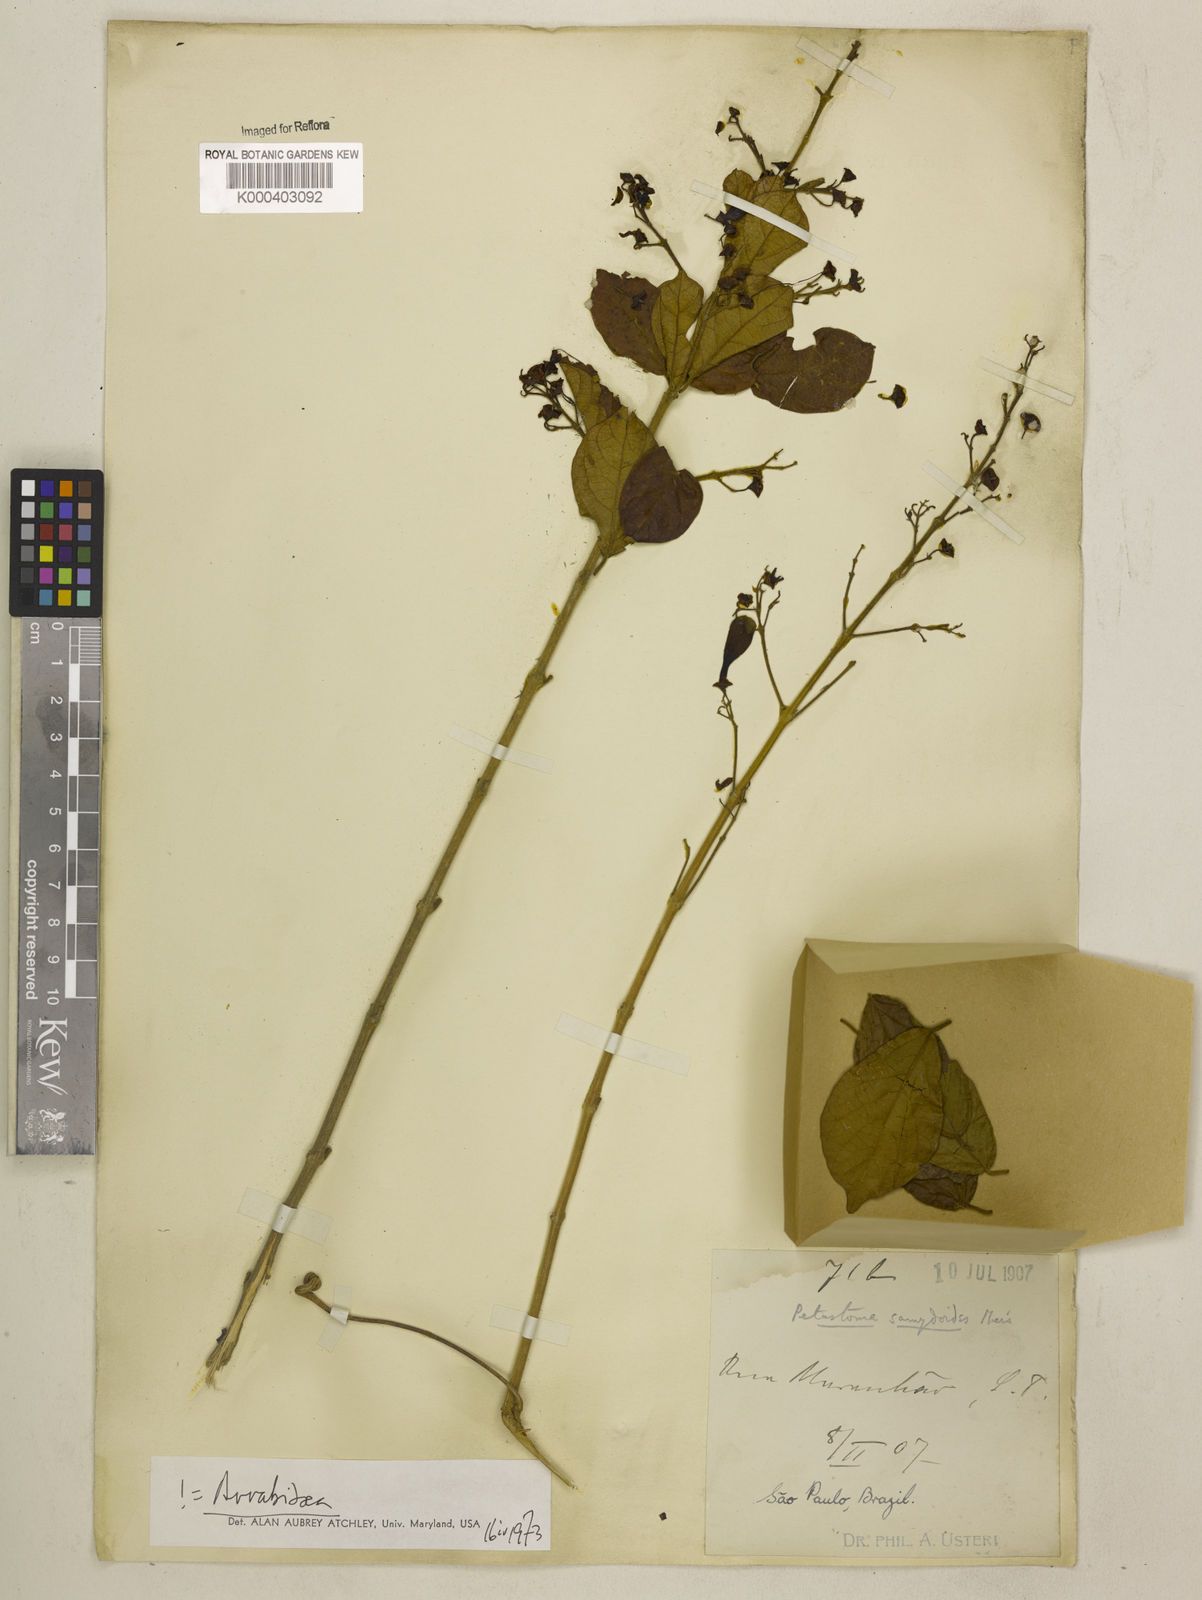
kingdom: Plantae
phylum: Tracheophyta
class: Magnoliopsida
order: Lamiales
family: Bignoniaceae
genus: Fridericia
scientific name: Fridericia samydoides
